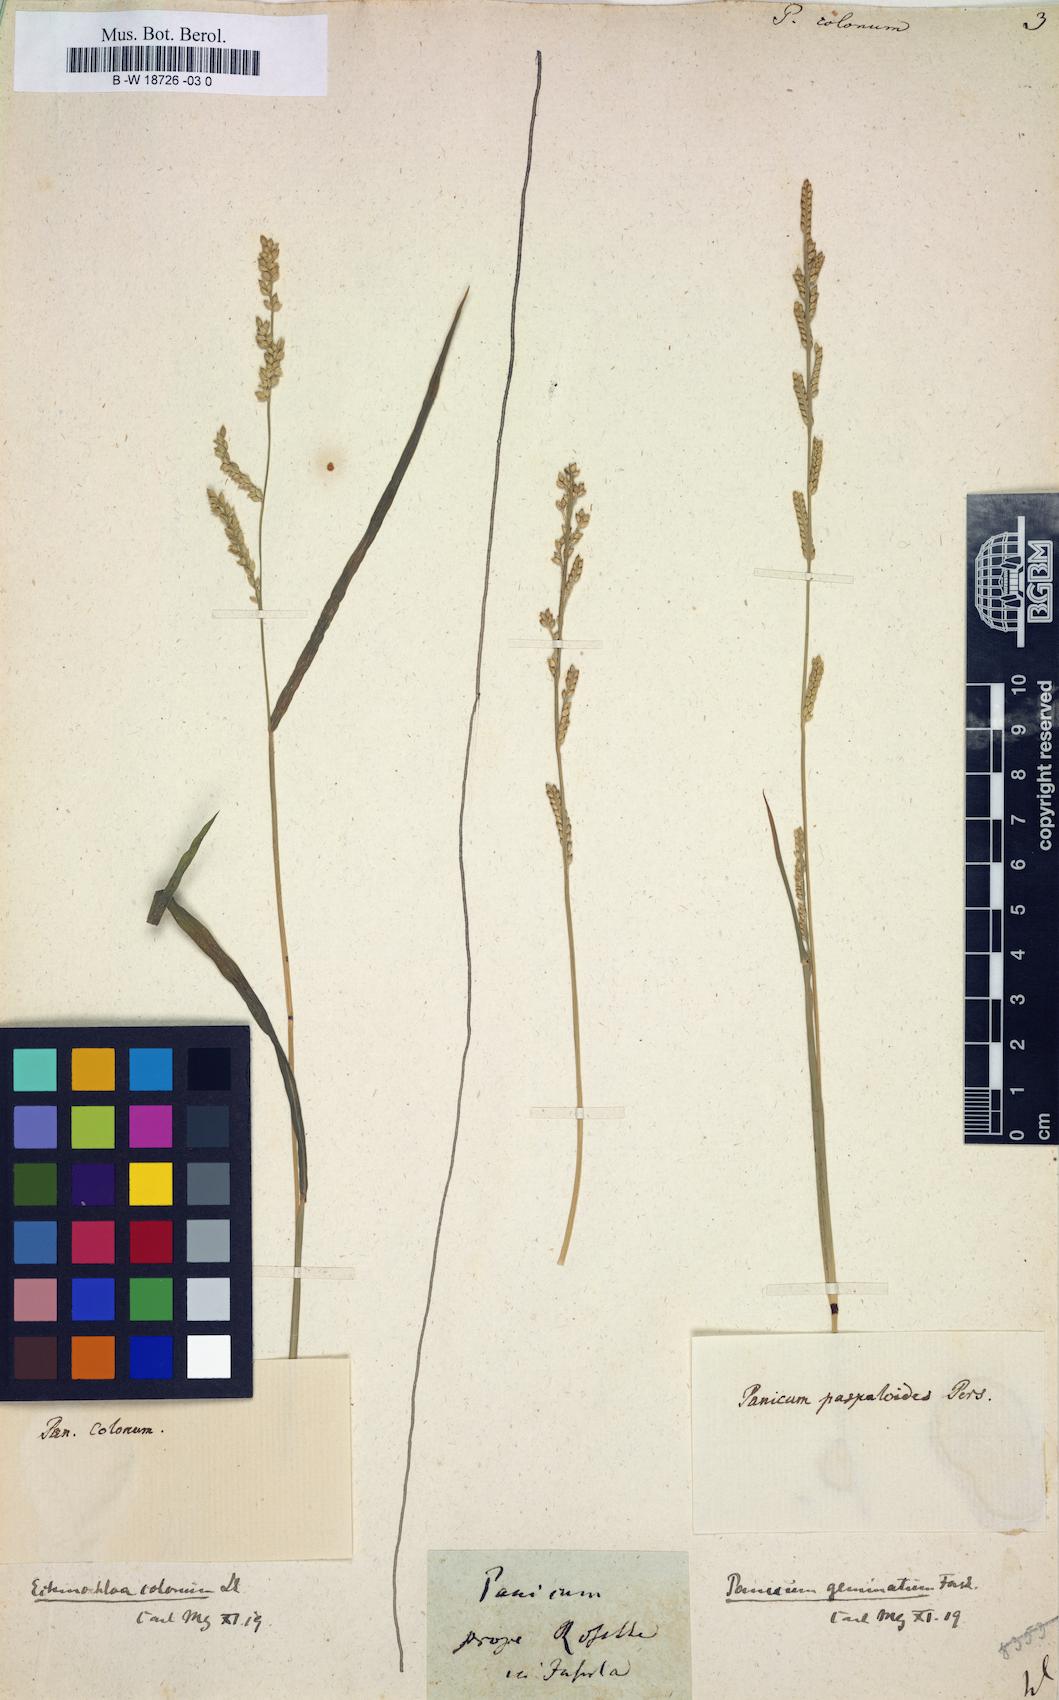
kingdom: Plantae
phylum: Tracheophyta
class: Liliopsida
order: Poales
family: Poaceae
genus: Echinochloa
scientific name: Echinochloa colonum
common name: Jungle rice
